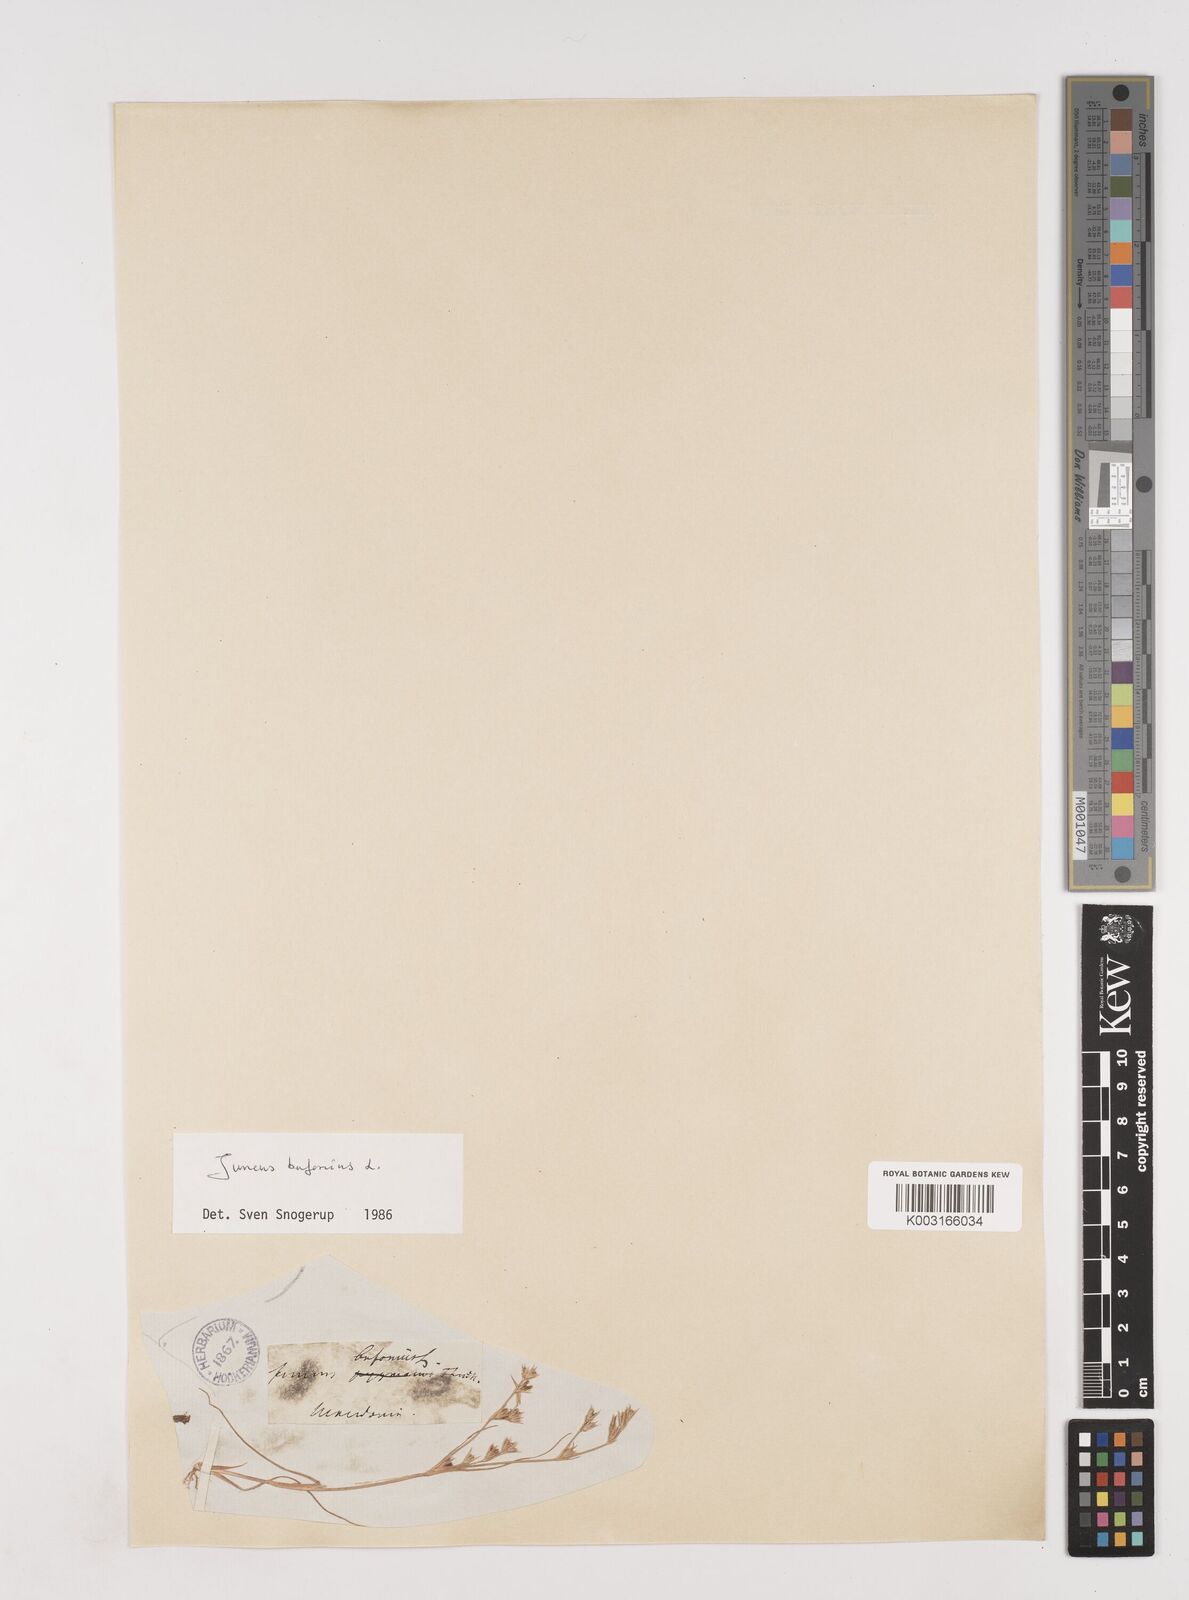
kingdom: Plantae
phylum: Tracheophyta
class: Liliopsida
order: Poales
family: Juncaceae
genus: Juncus
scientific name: Juncus bufonius
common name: Toad rush
